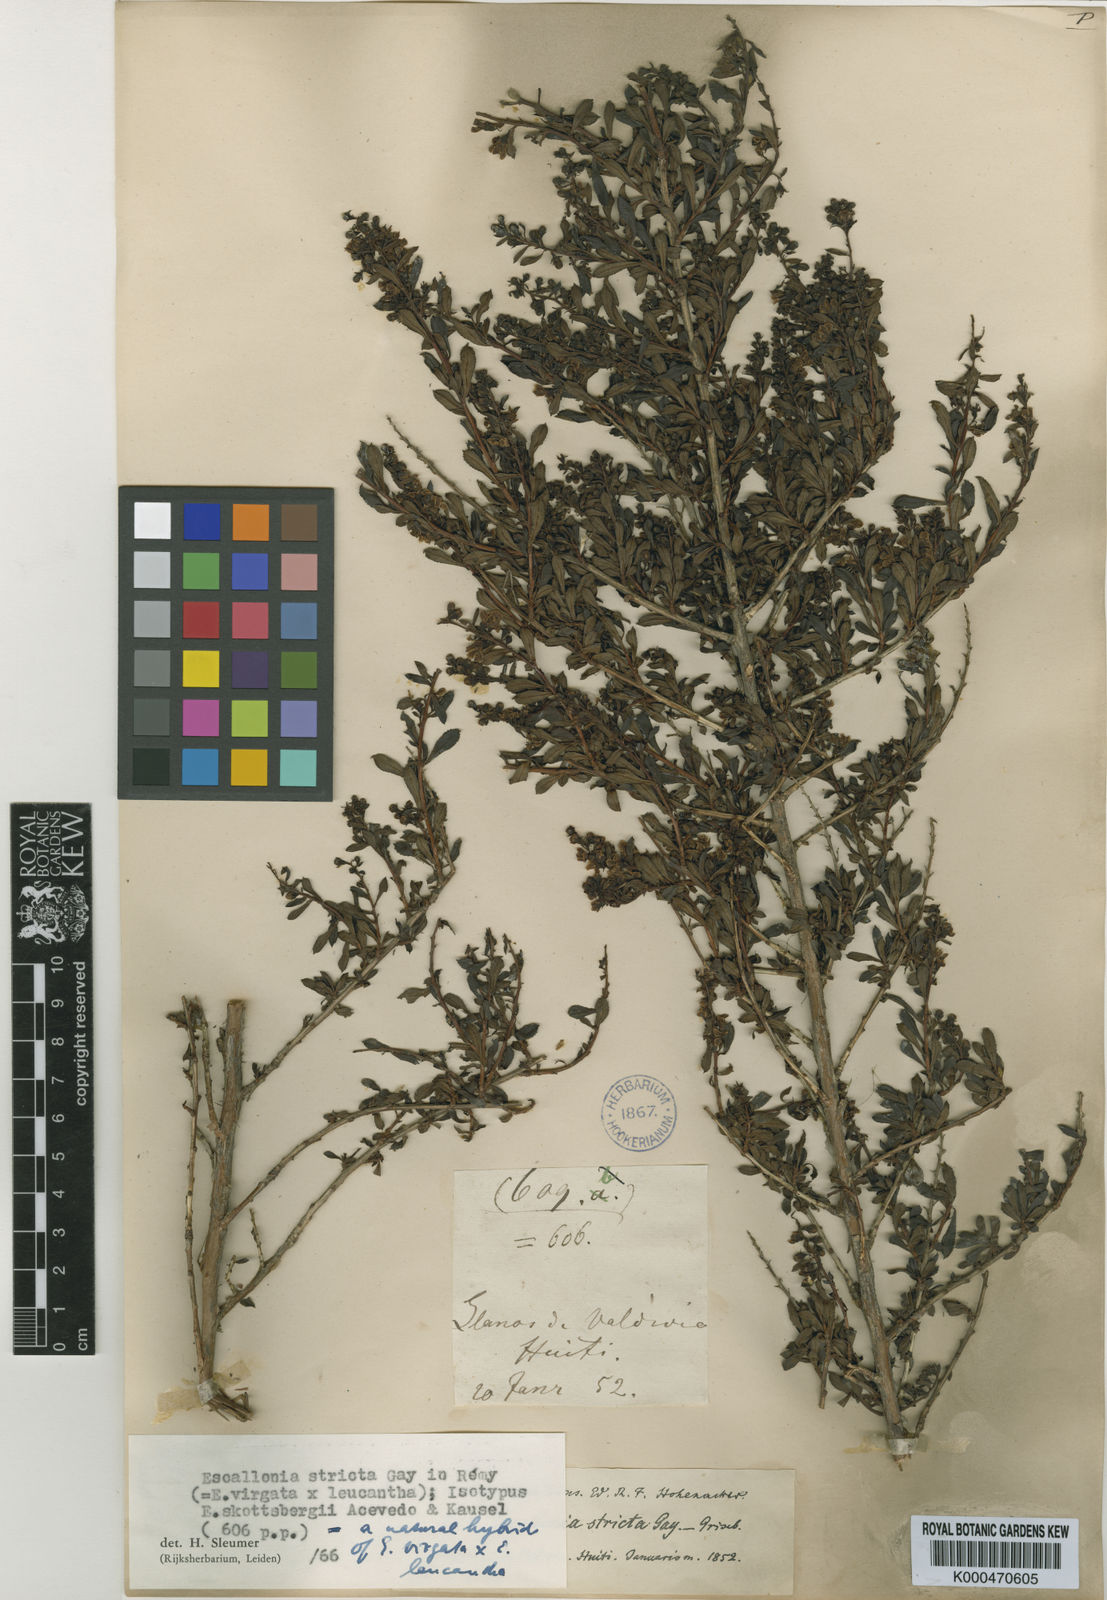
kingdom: Plantae
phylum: Tracheophyta
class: Magnoliopsida
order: Escalloniales
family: Escalloniaceae
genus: Escallonia
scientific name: Escallonia virgata
